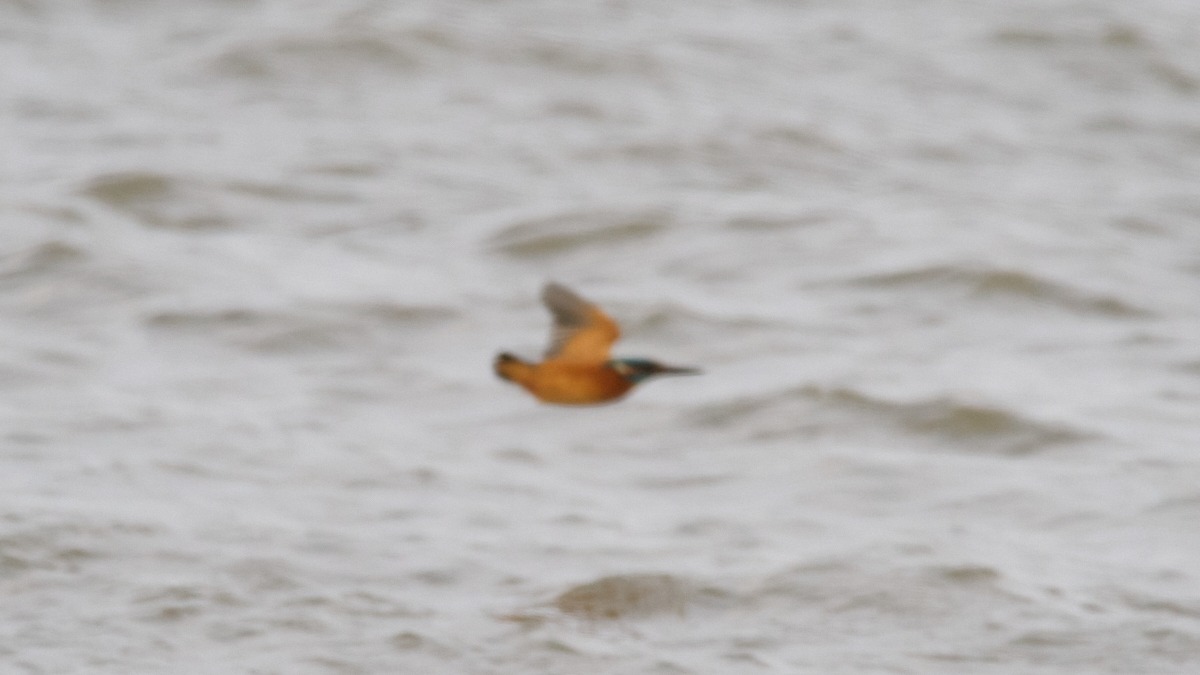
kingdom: Animalia
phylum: Chordata
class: Aves
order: Coraciiformes
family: Alcedinidae
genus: Alcedo
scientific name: Alcedo atthis
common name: Isfugl
